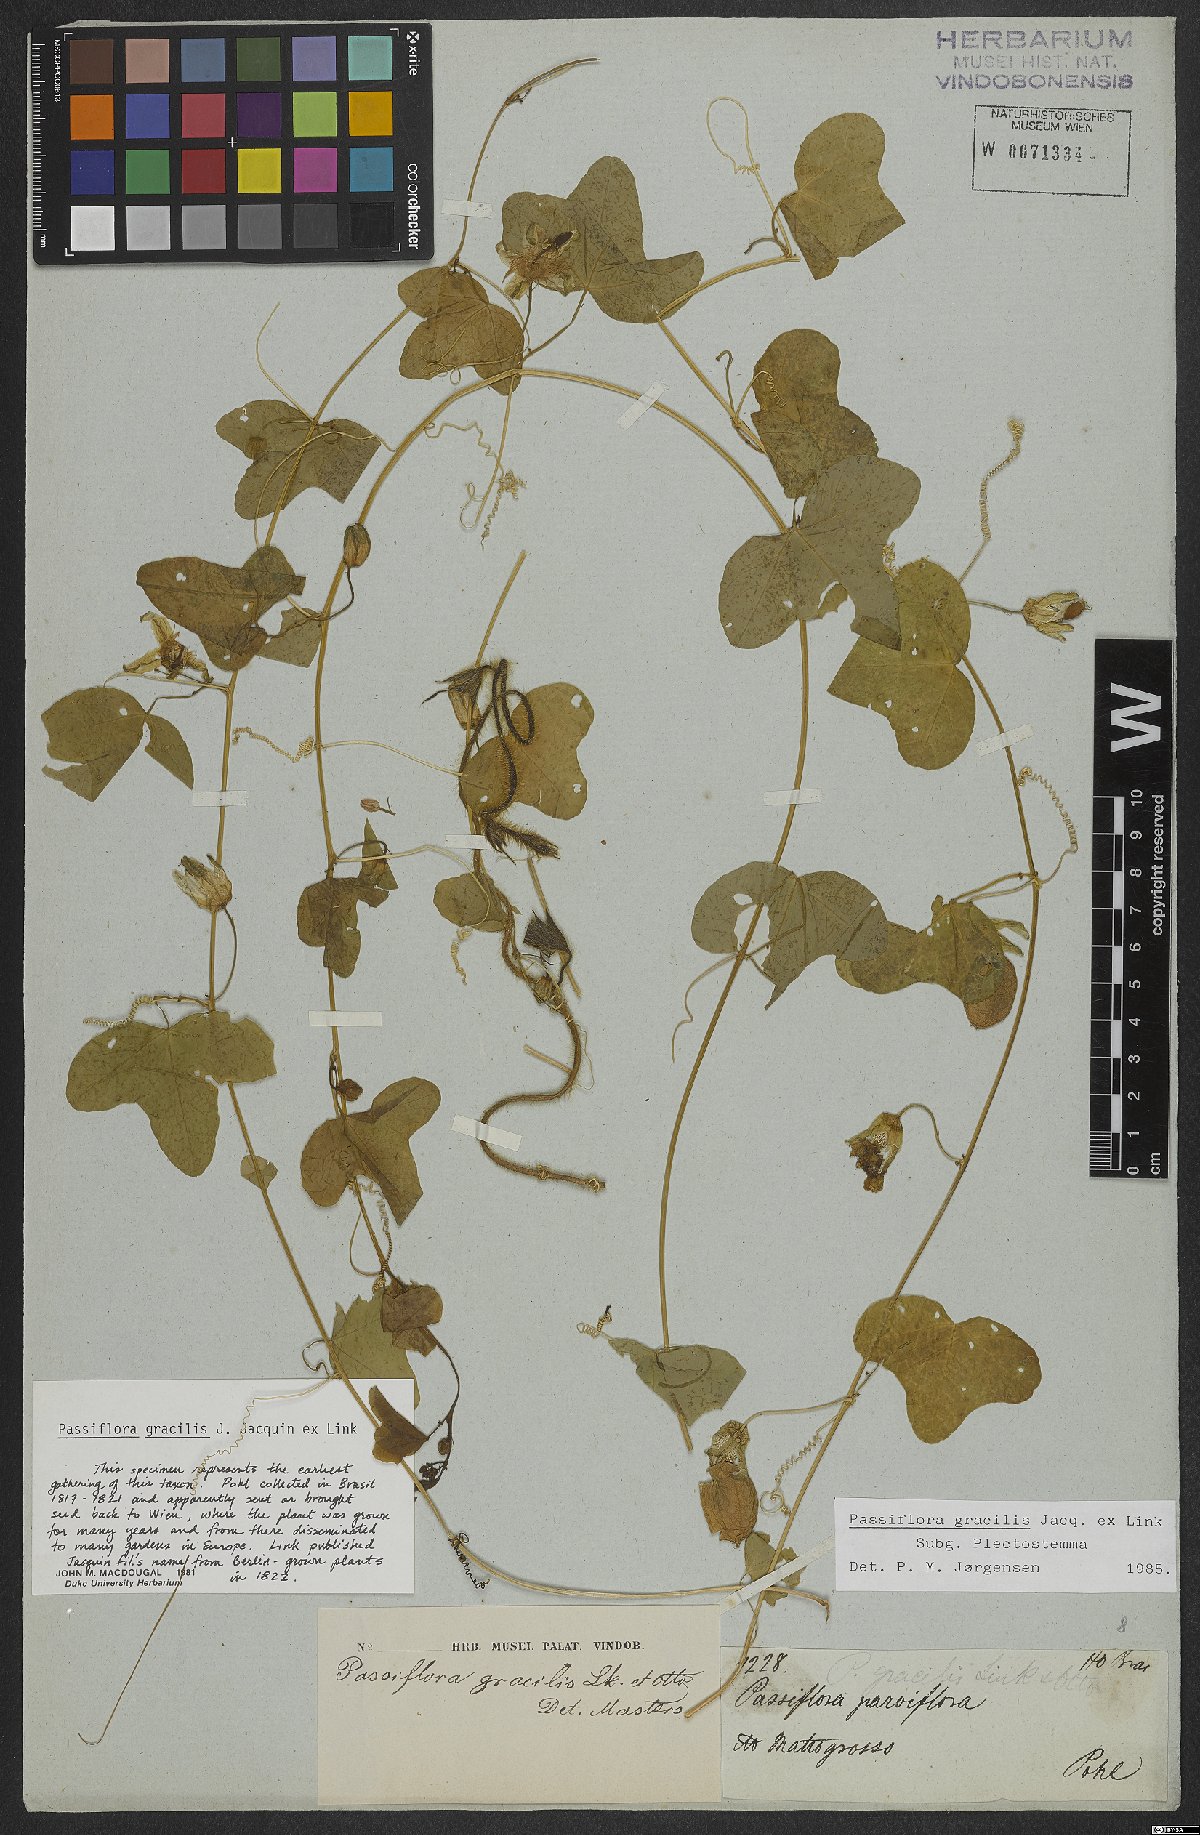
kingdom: Plantae
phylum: Tracheophyta
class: Magnoliopsida
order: Malpighiales
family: Passifloraceae
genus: Passiflora
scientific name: Passiflora gracilis
